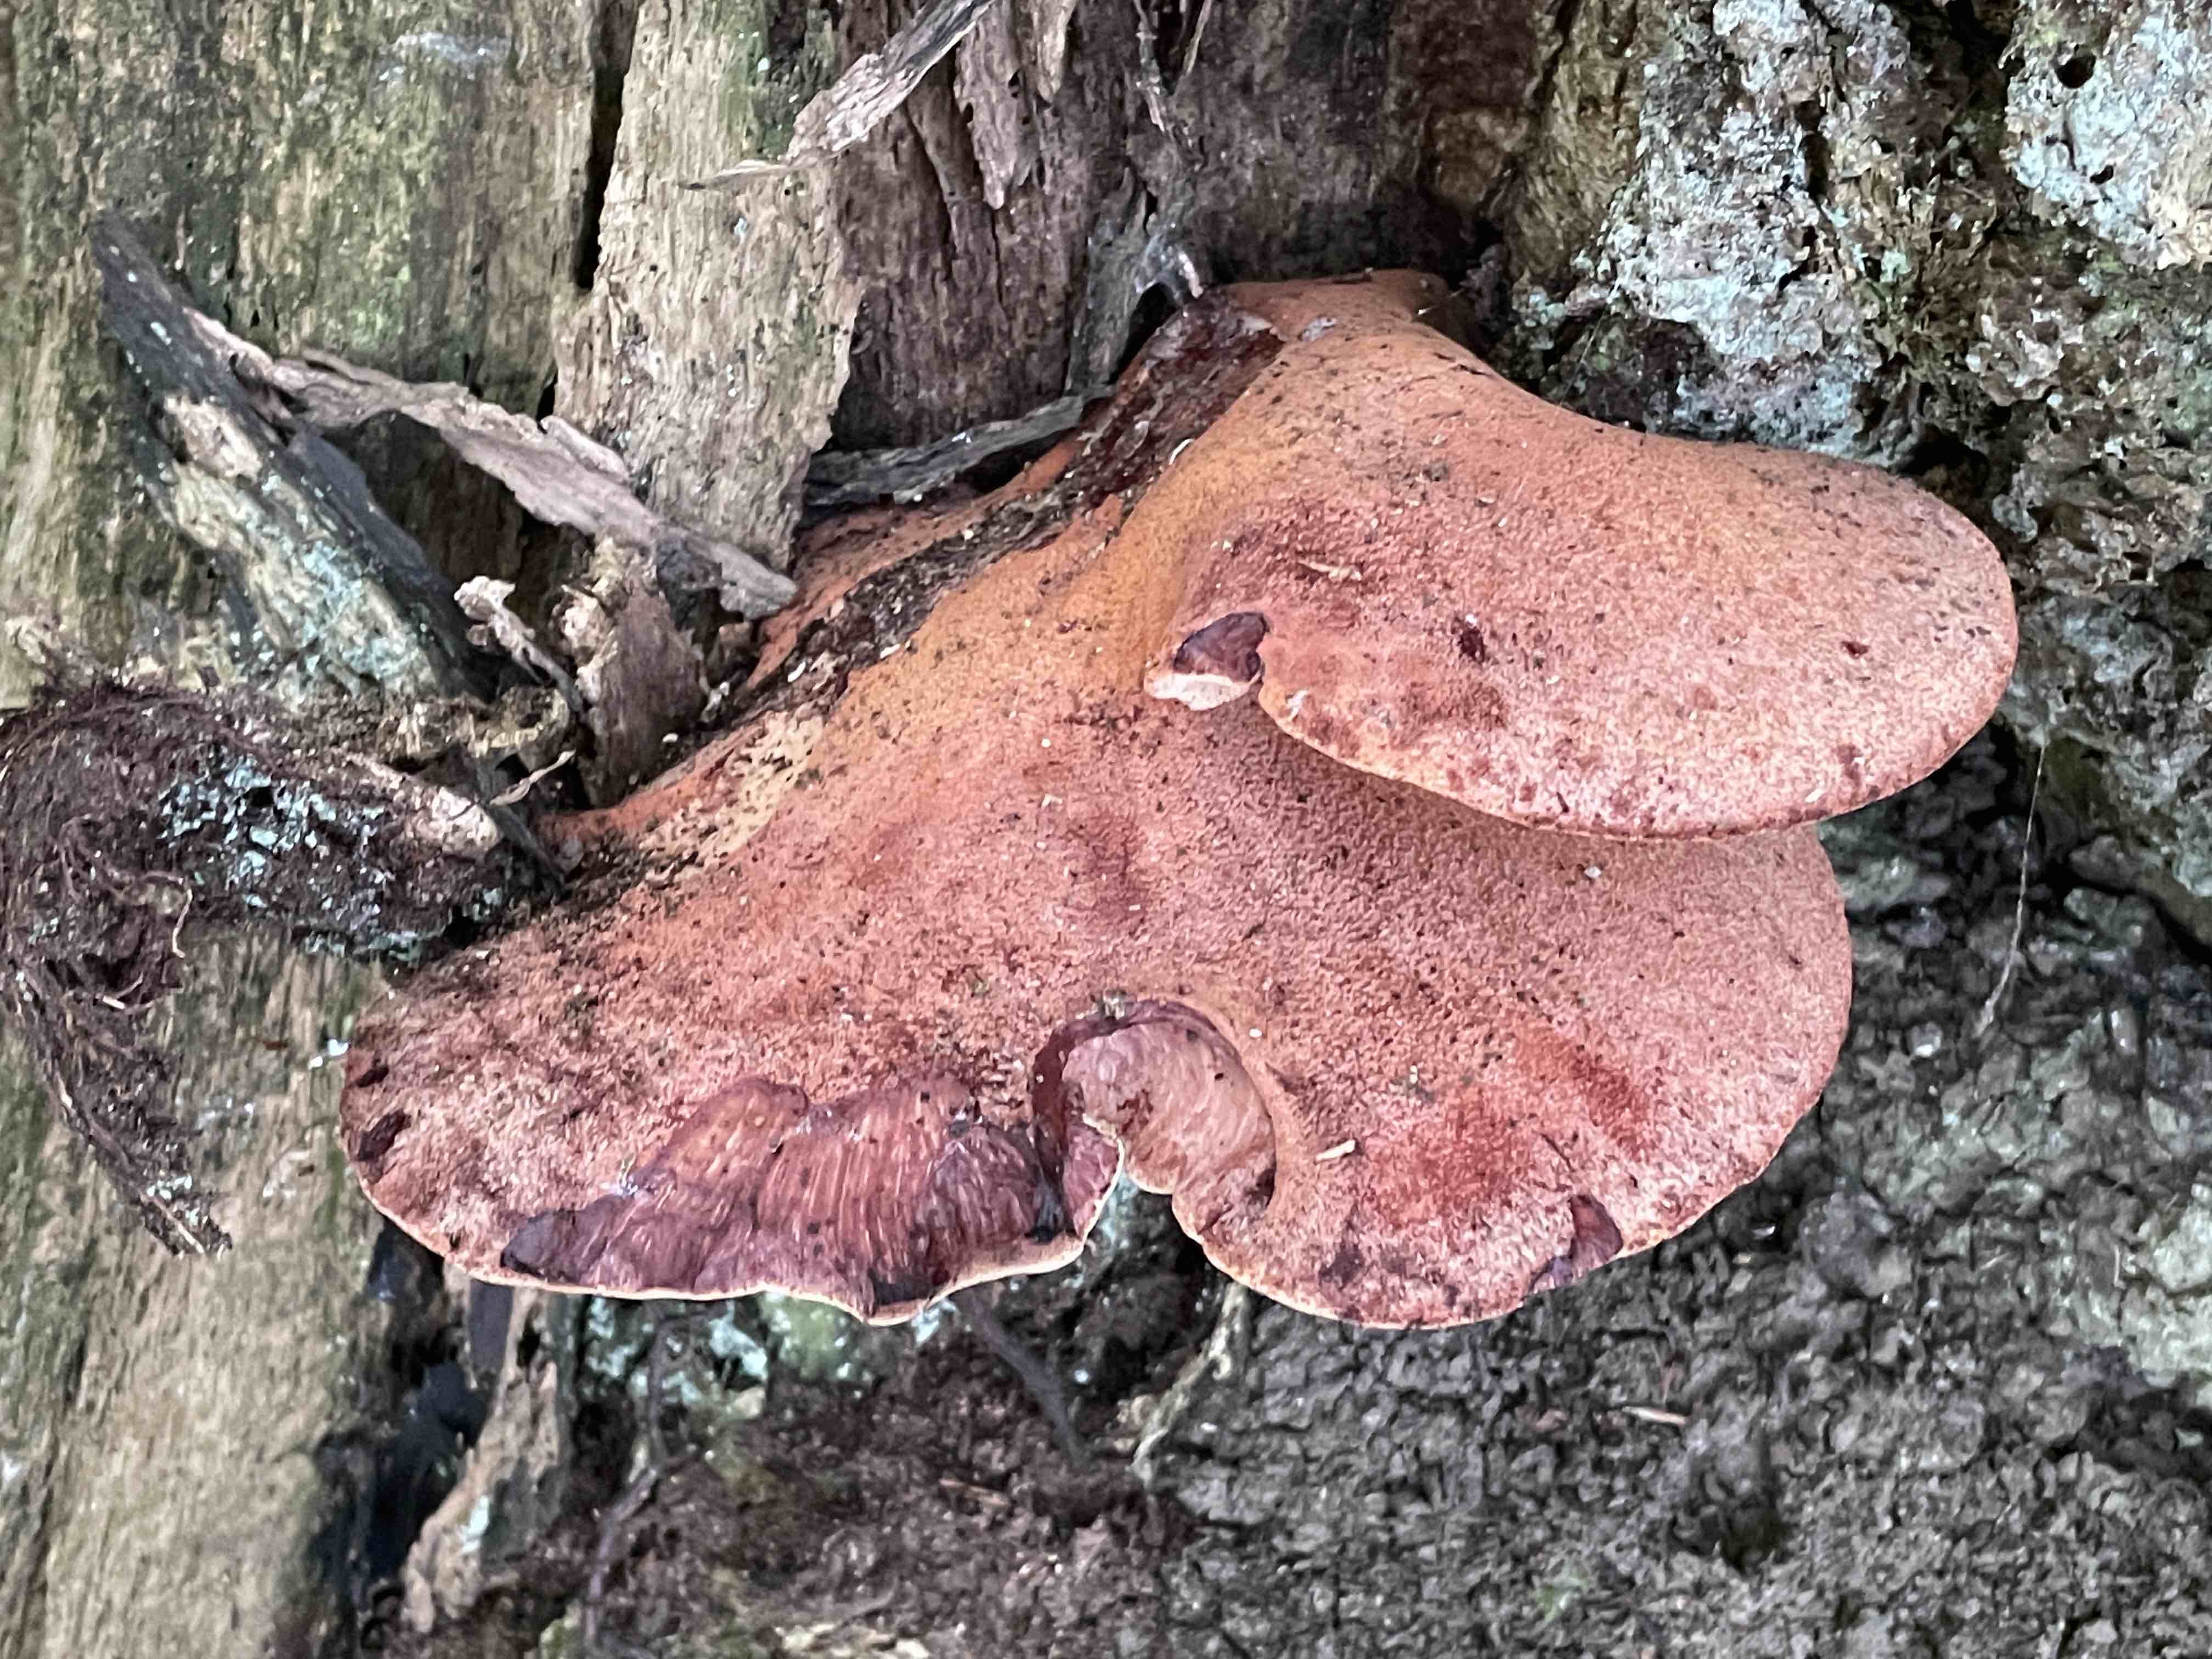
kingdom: Fungi
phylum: Basidiomycota
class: Agaricomycetes
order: Agaricales
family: Fistulinaceae
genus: Fistulina
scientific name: Fistulina hepatica
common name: oksetunge
